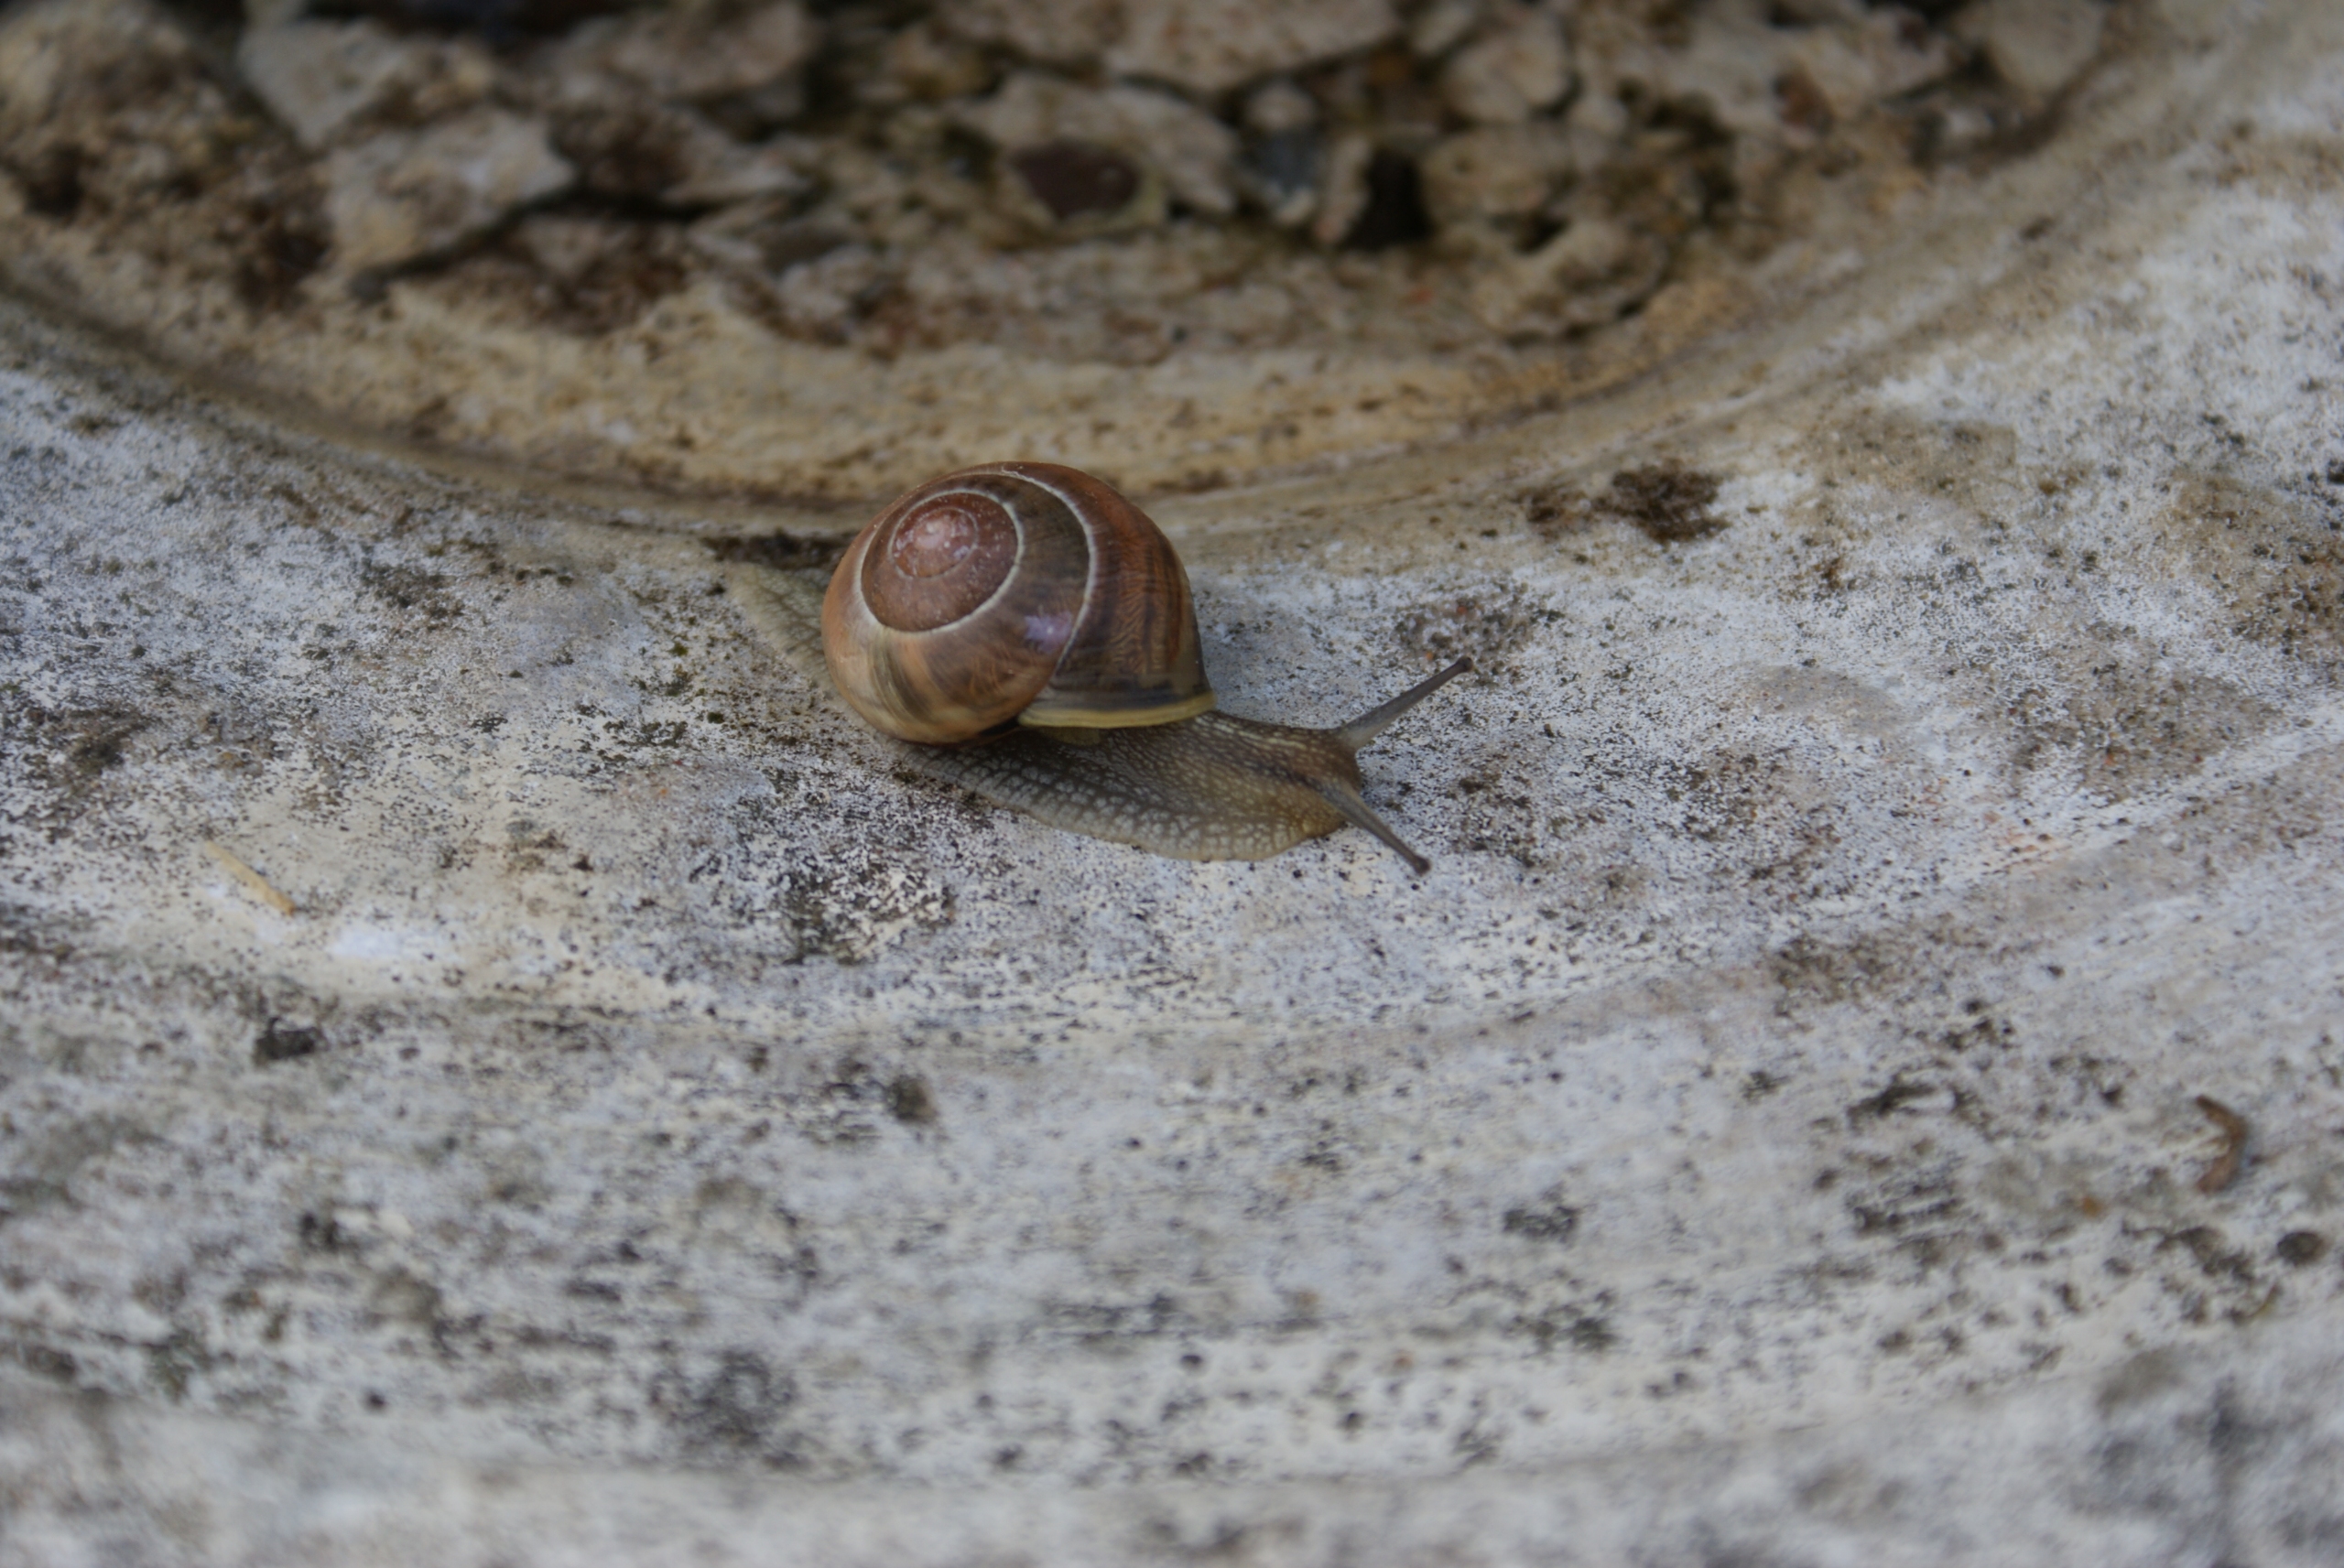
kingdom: Animalia
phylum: Mollusca
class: Gastropoda
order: Stylommatophora
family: Helicidae
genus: Cepaea
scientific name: Cepaea hortensis
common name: Havesnegl
